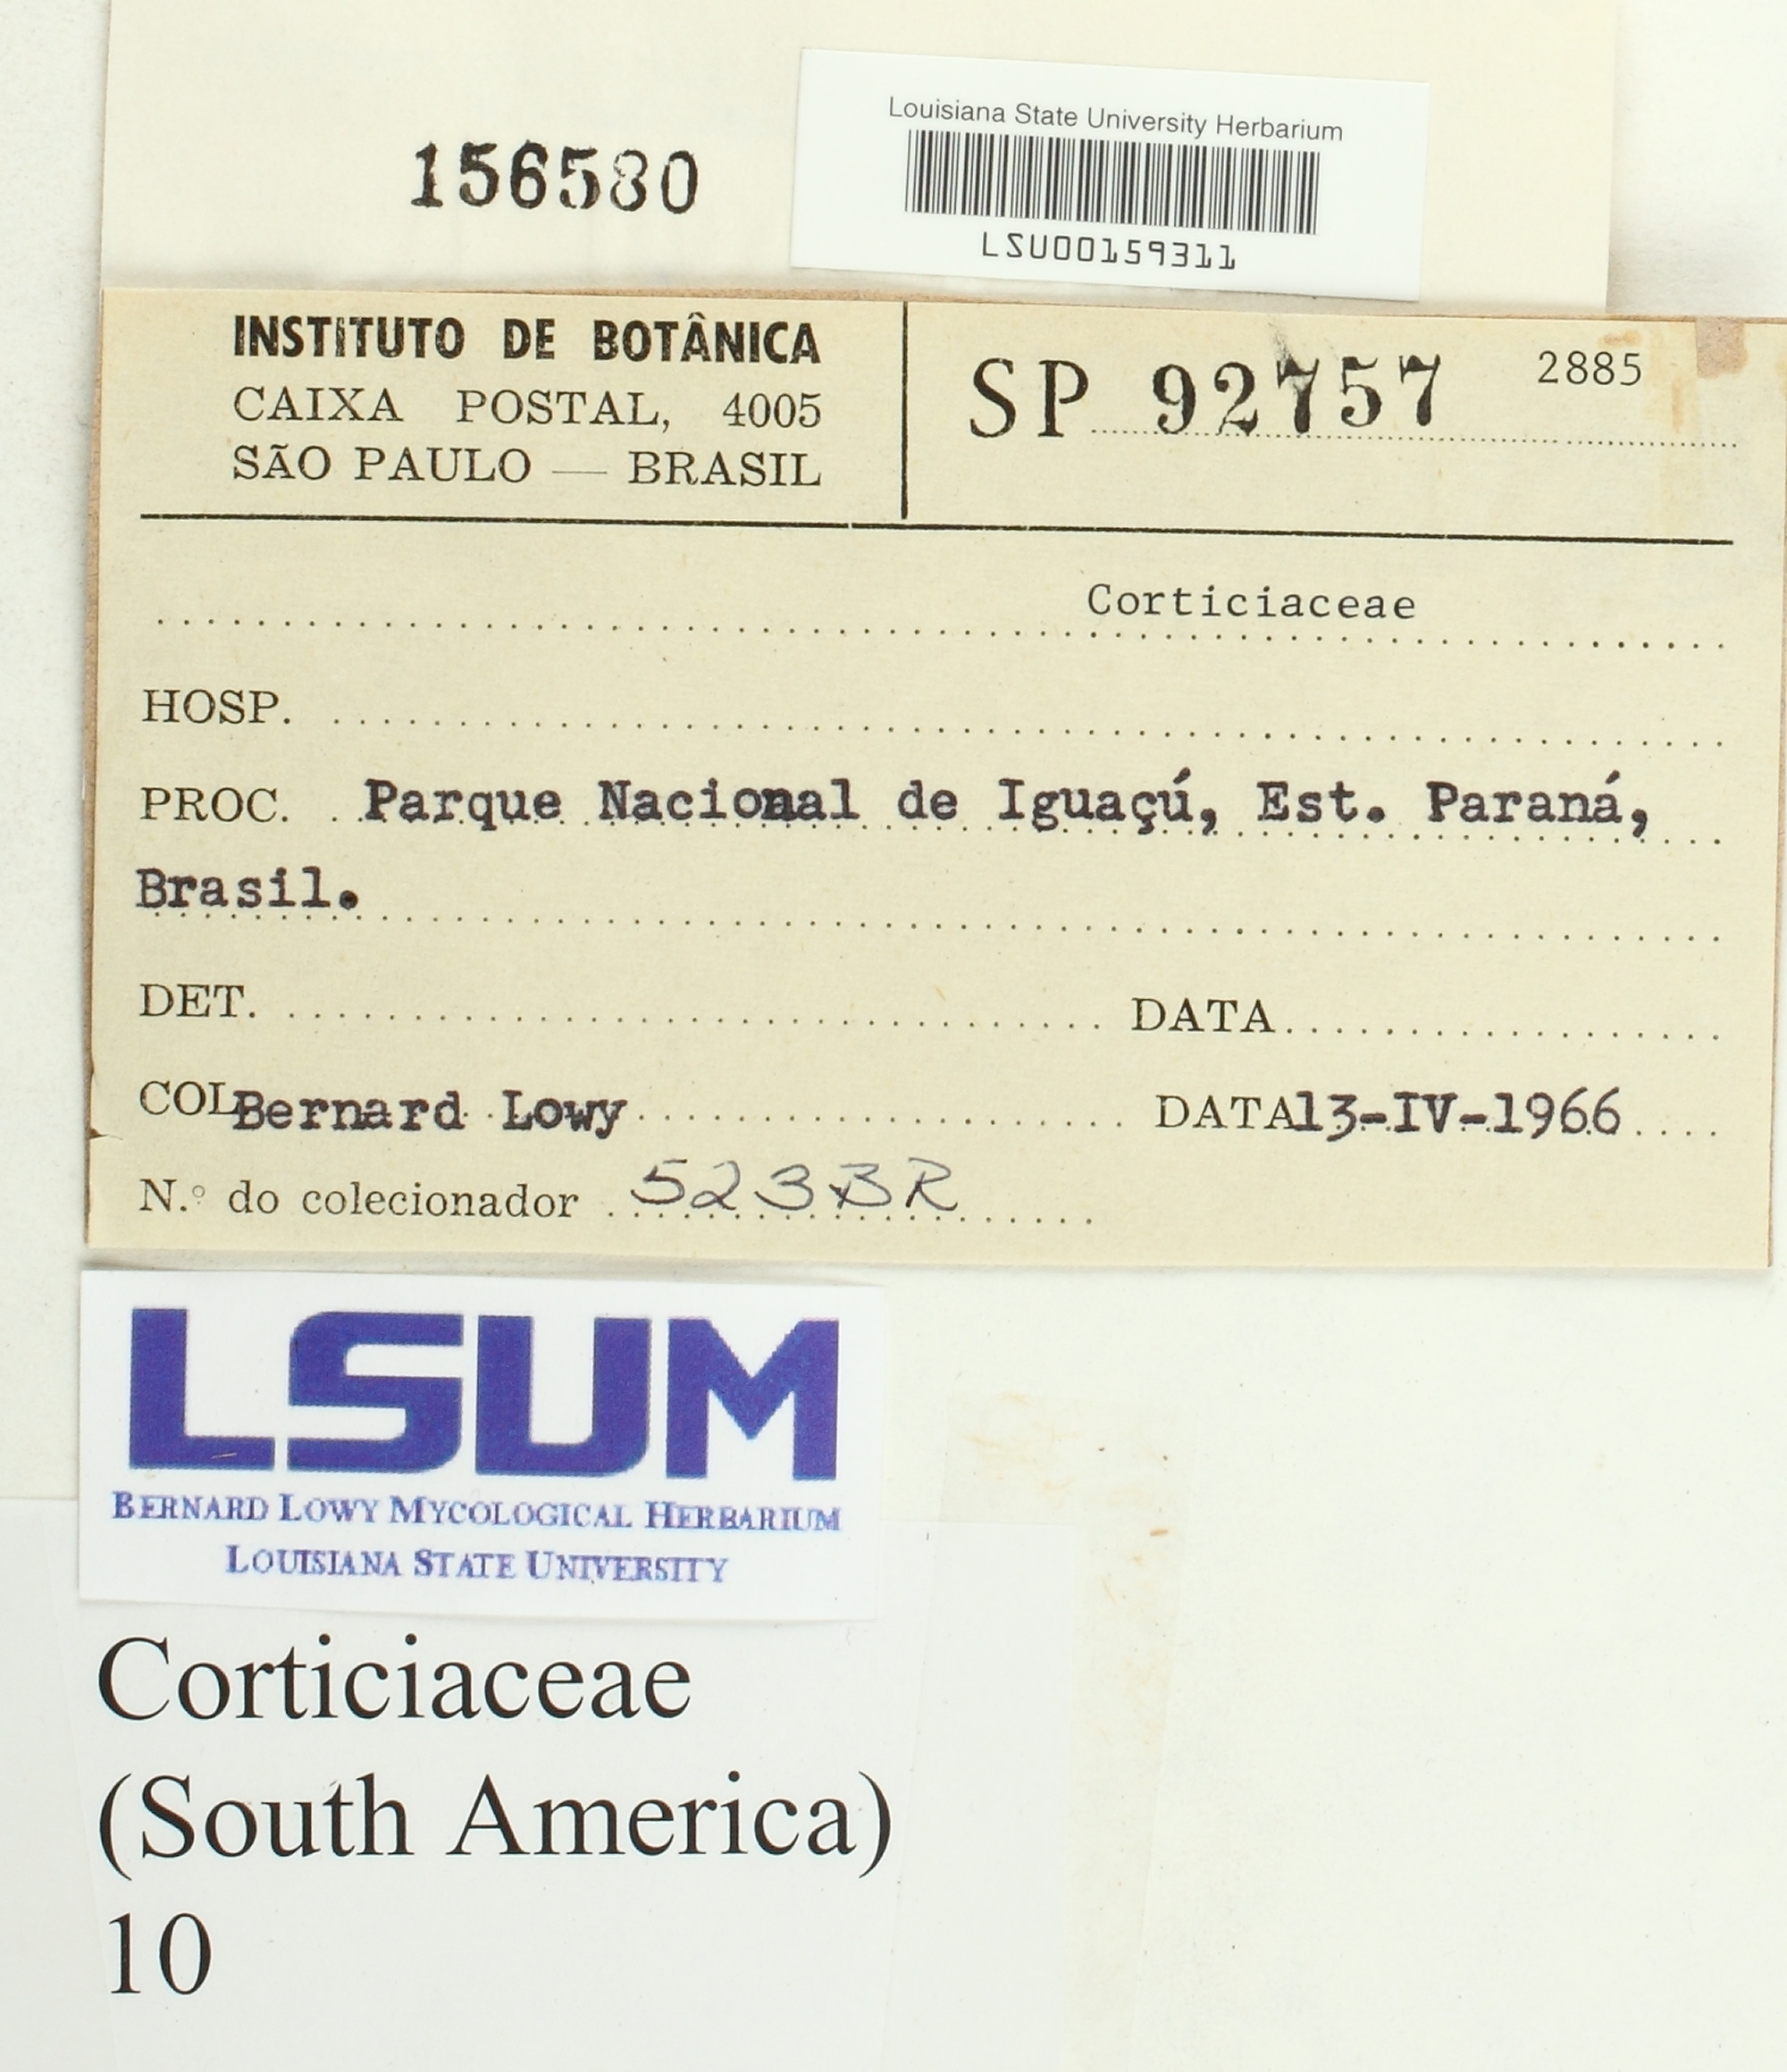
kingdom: Fungi
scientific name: Fungi
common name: Fungi
